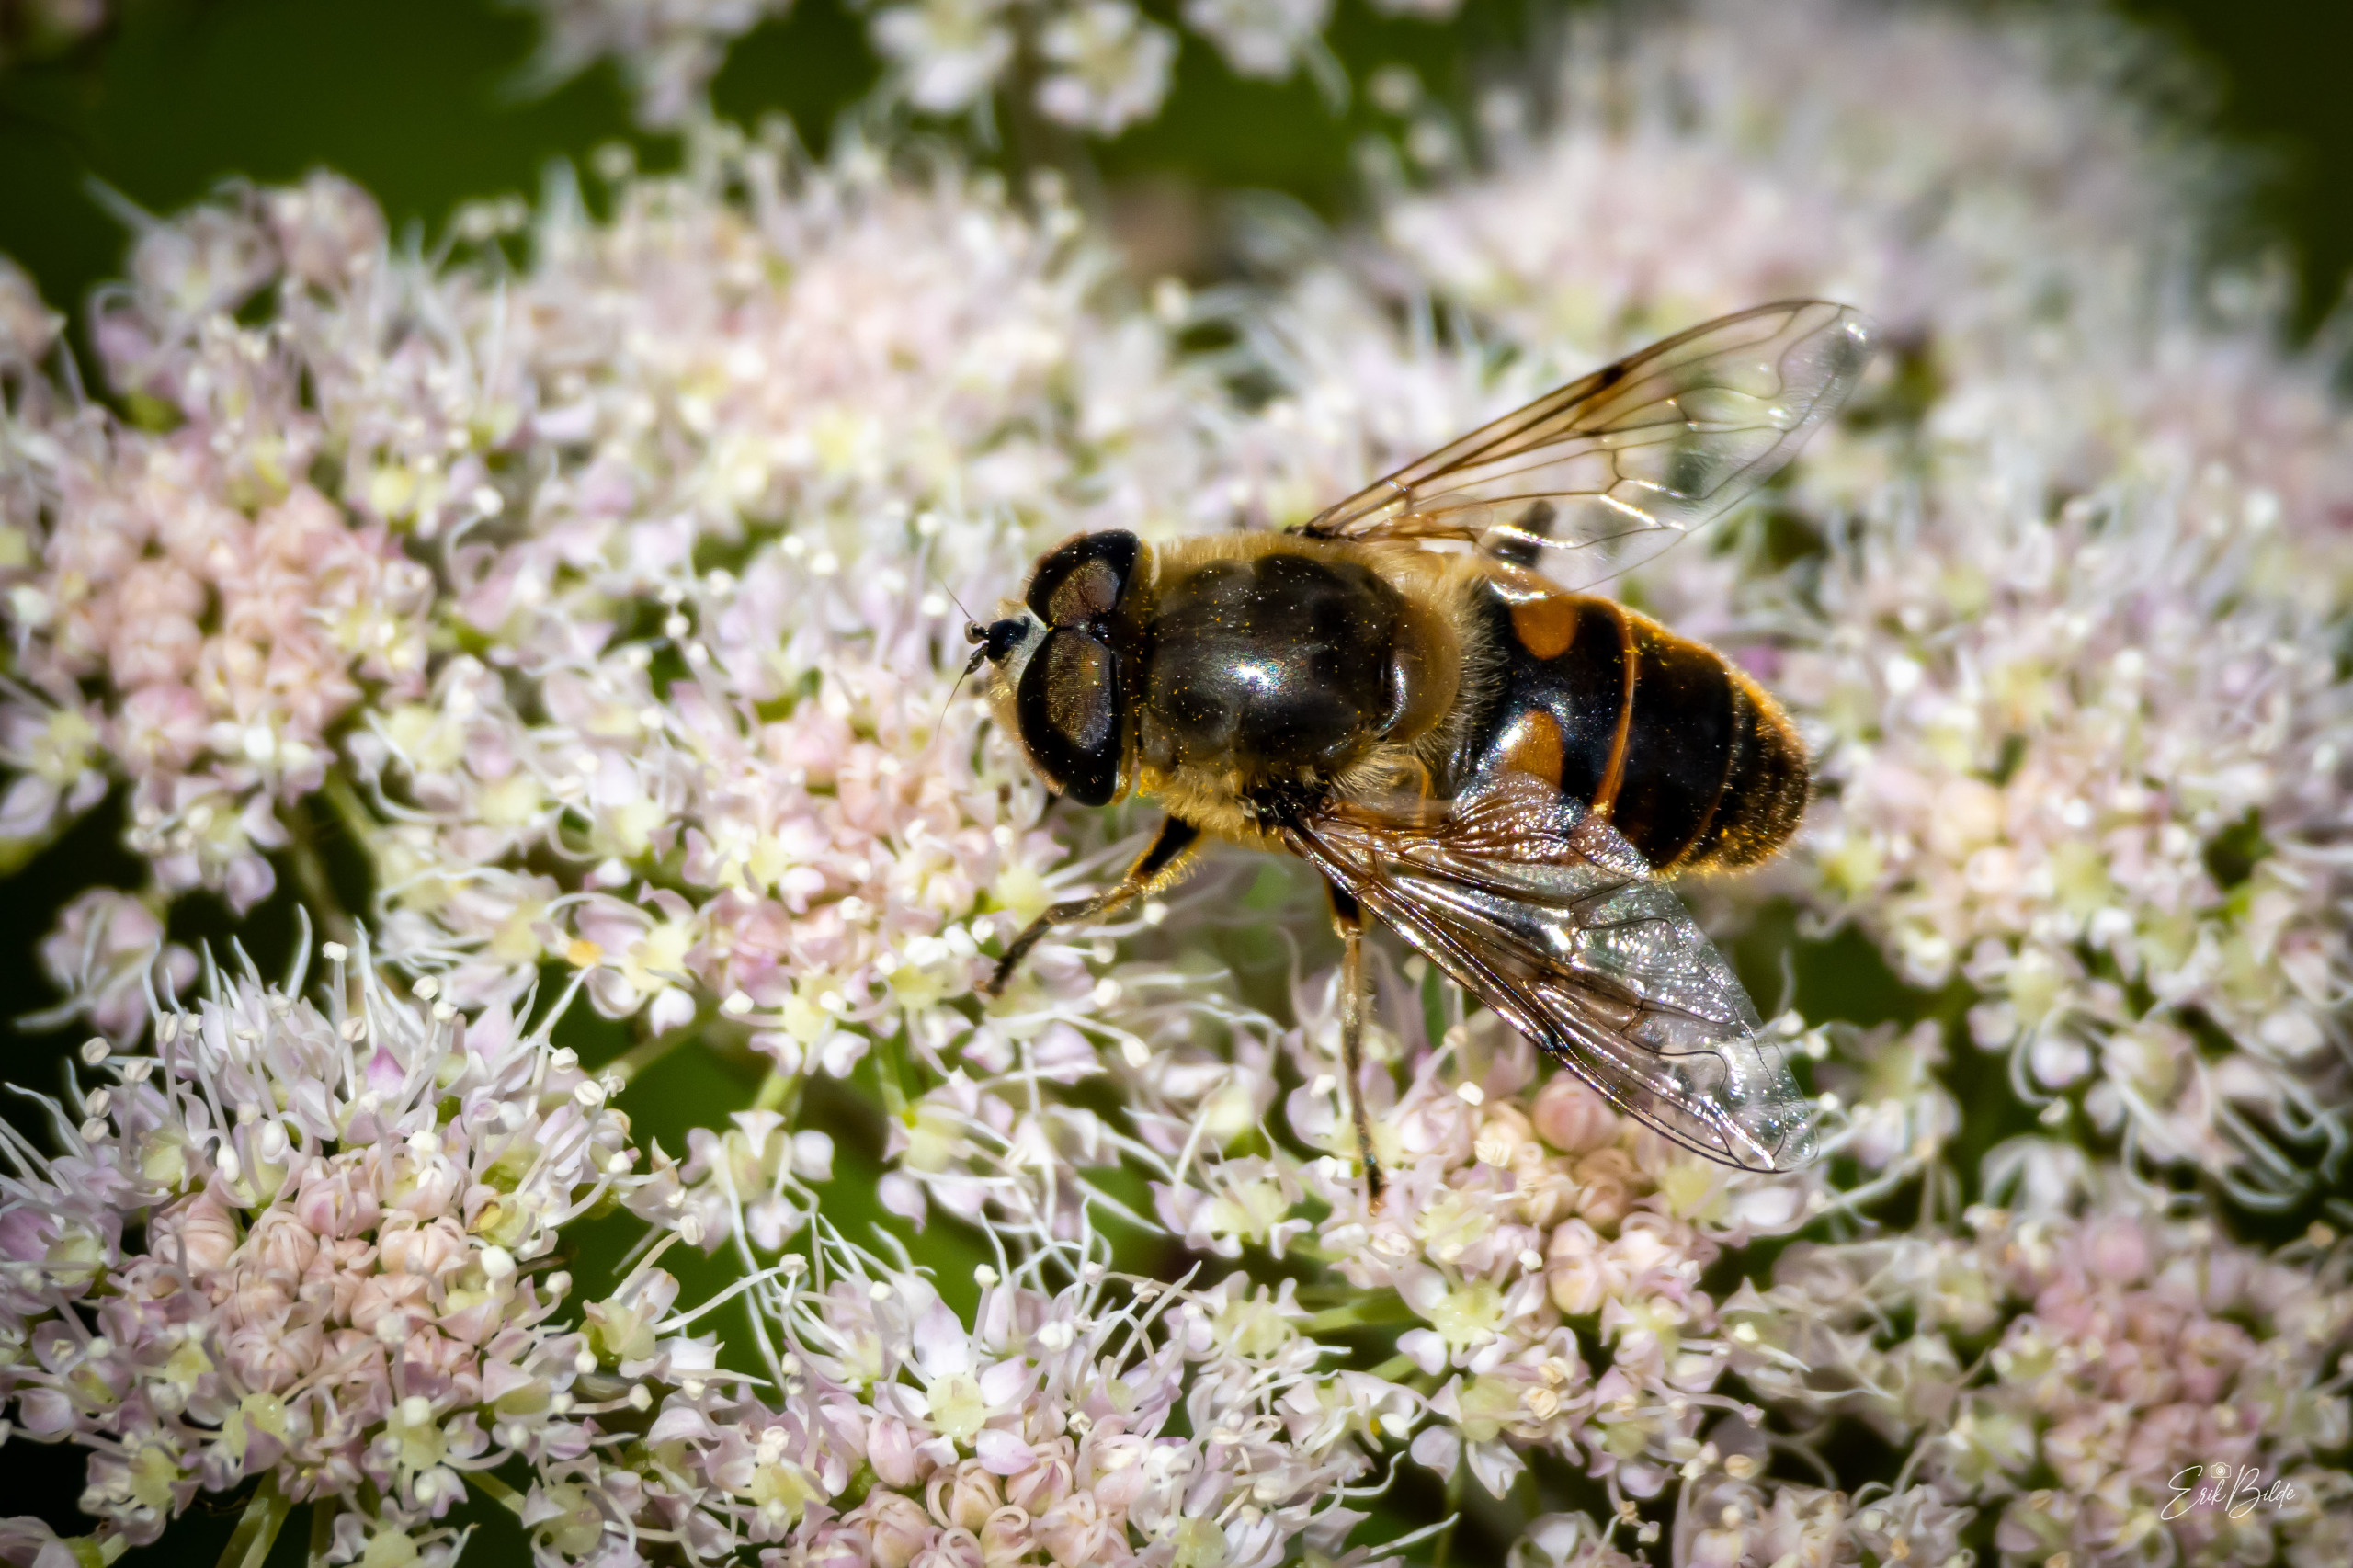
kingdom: Animalia
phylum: Arthropoda
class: Insecta
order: Diptera
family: Syrphidae
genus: Eristalis
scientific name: Eristalis tenax
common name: Droneflue
